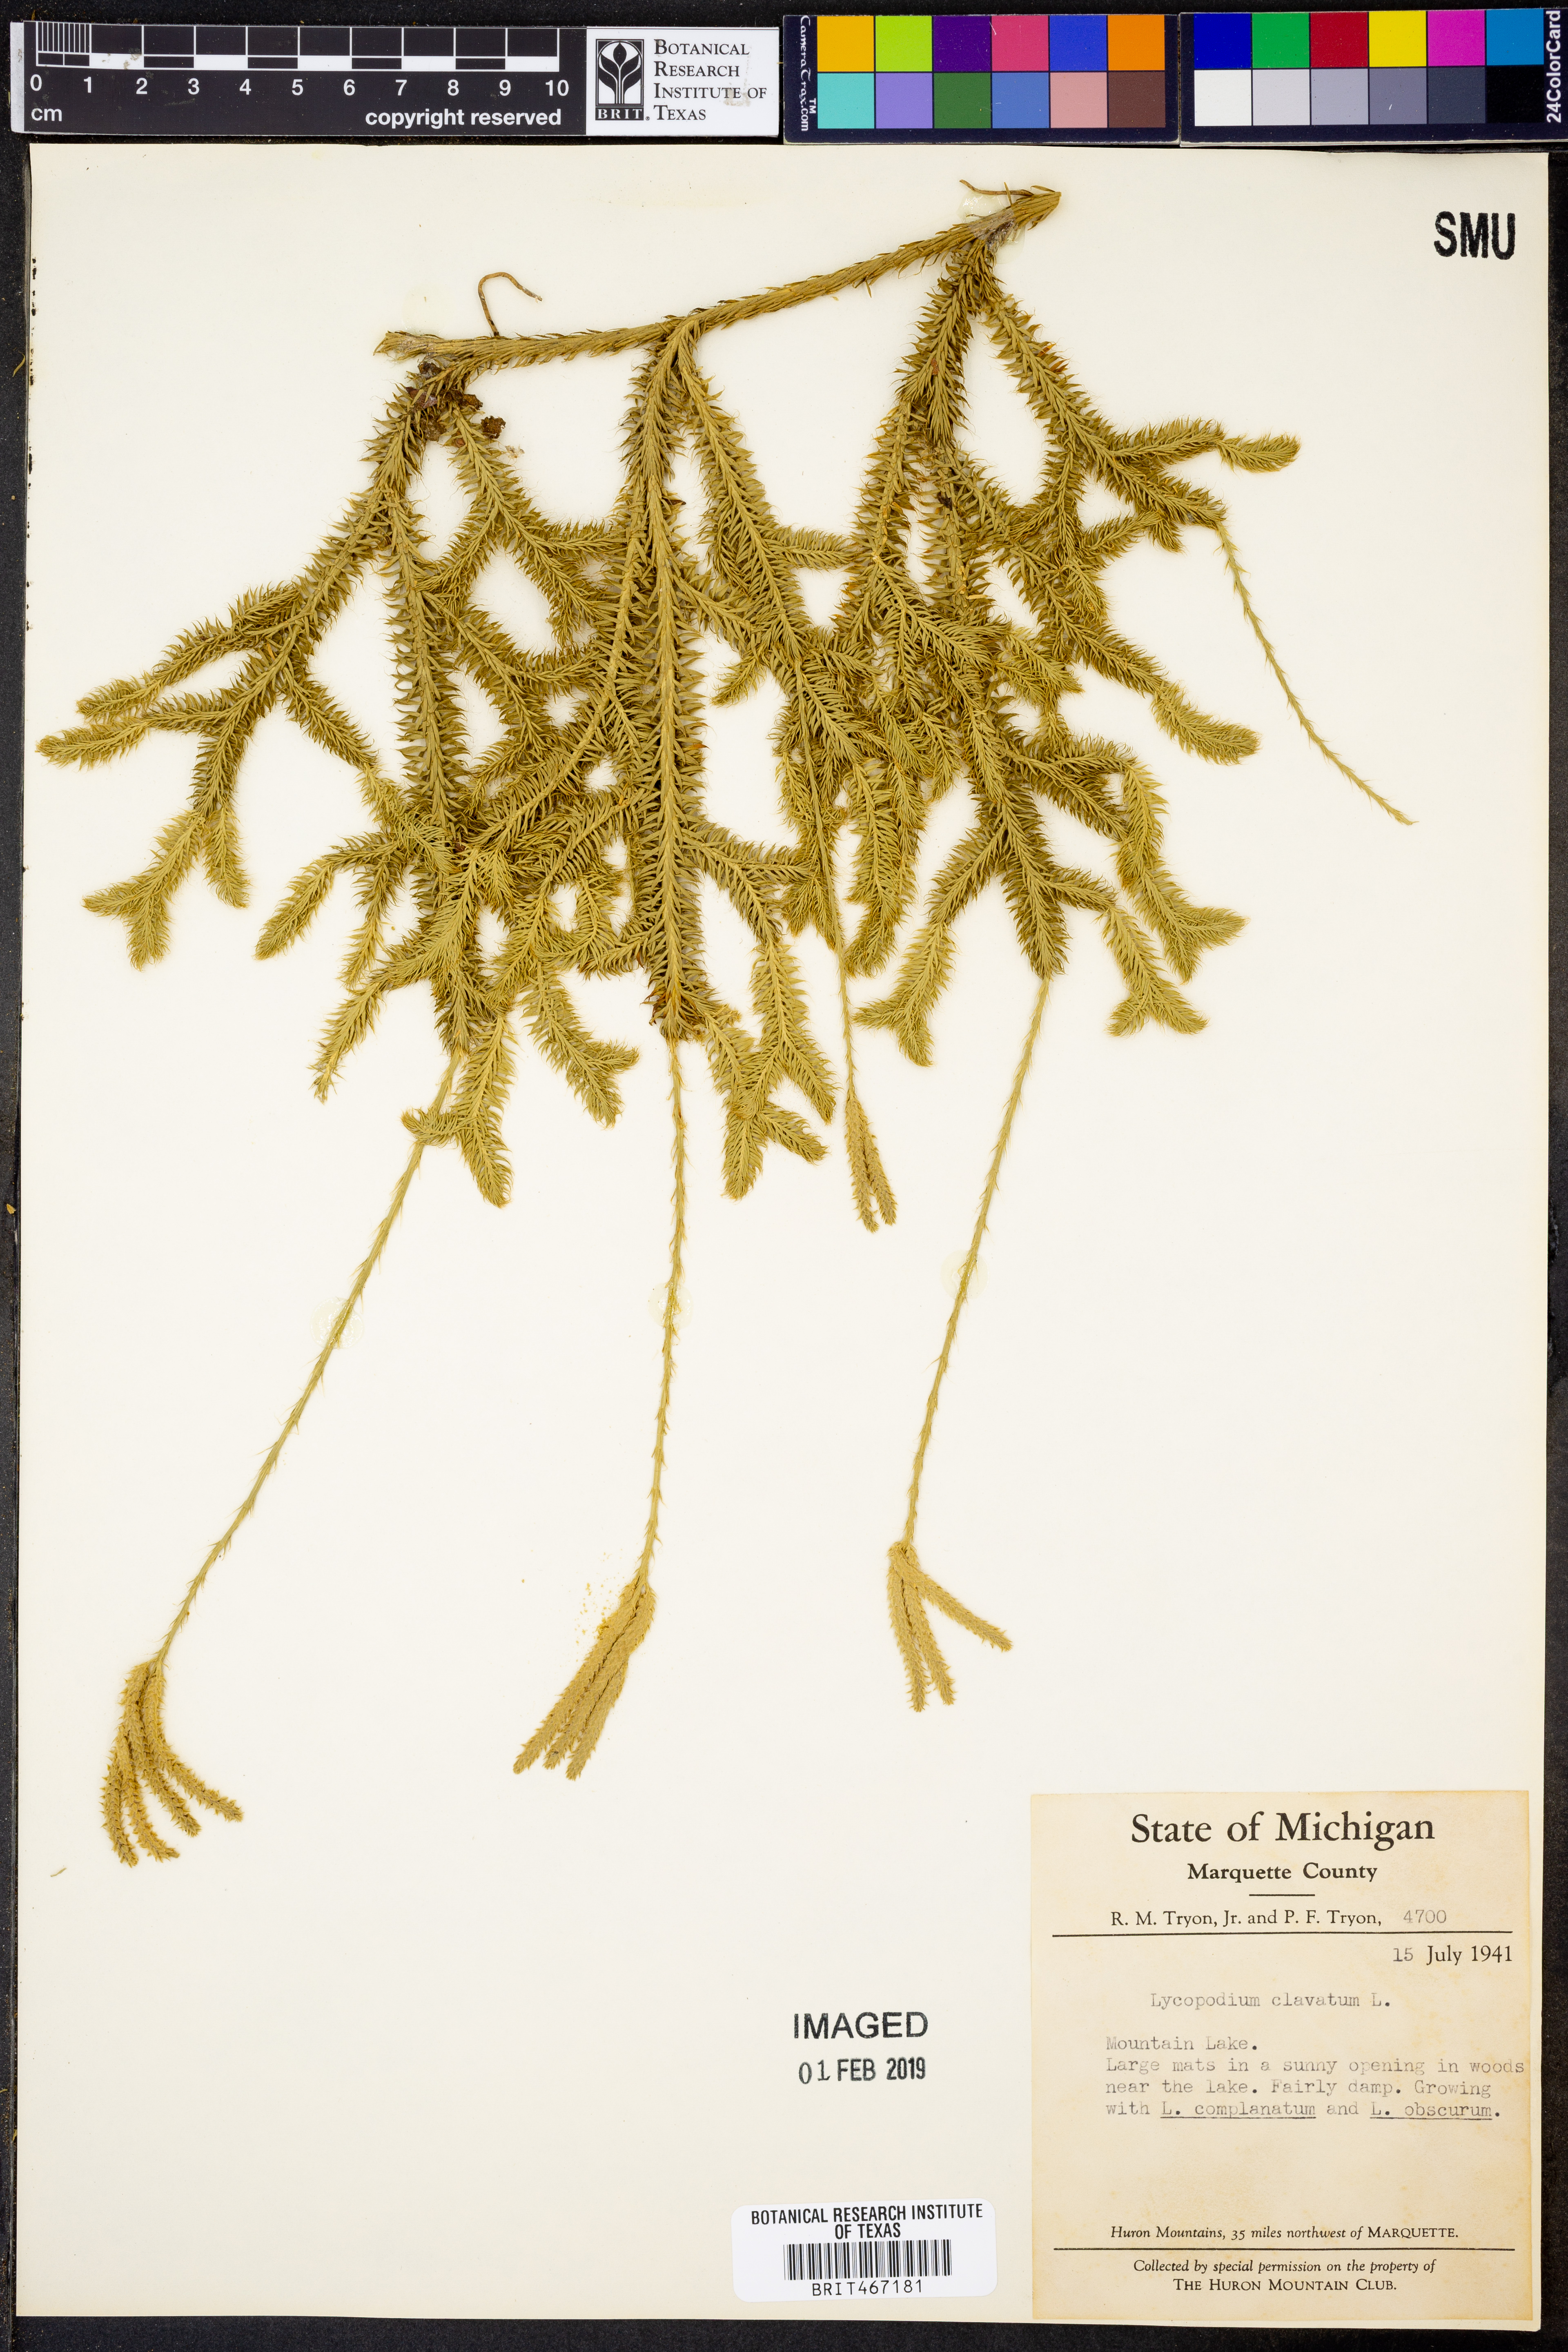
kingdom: Plantae
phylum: Tracheophyta
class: Lycopodiopsida
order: Lycopodiales
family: Lycopodiaceae
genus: Lycopodium
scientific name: Lycopodium clavatum
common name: Stag's-horn clubmoss
